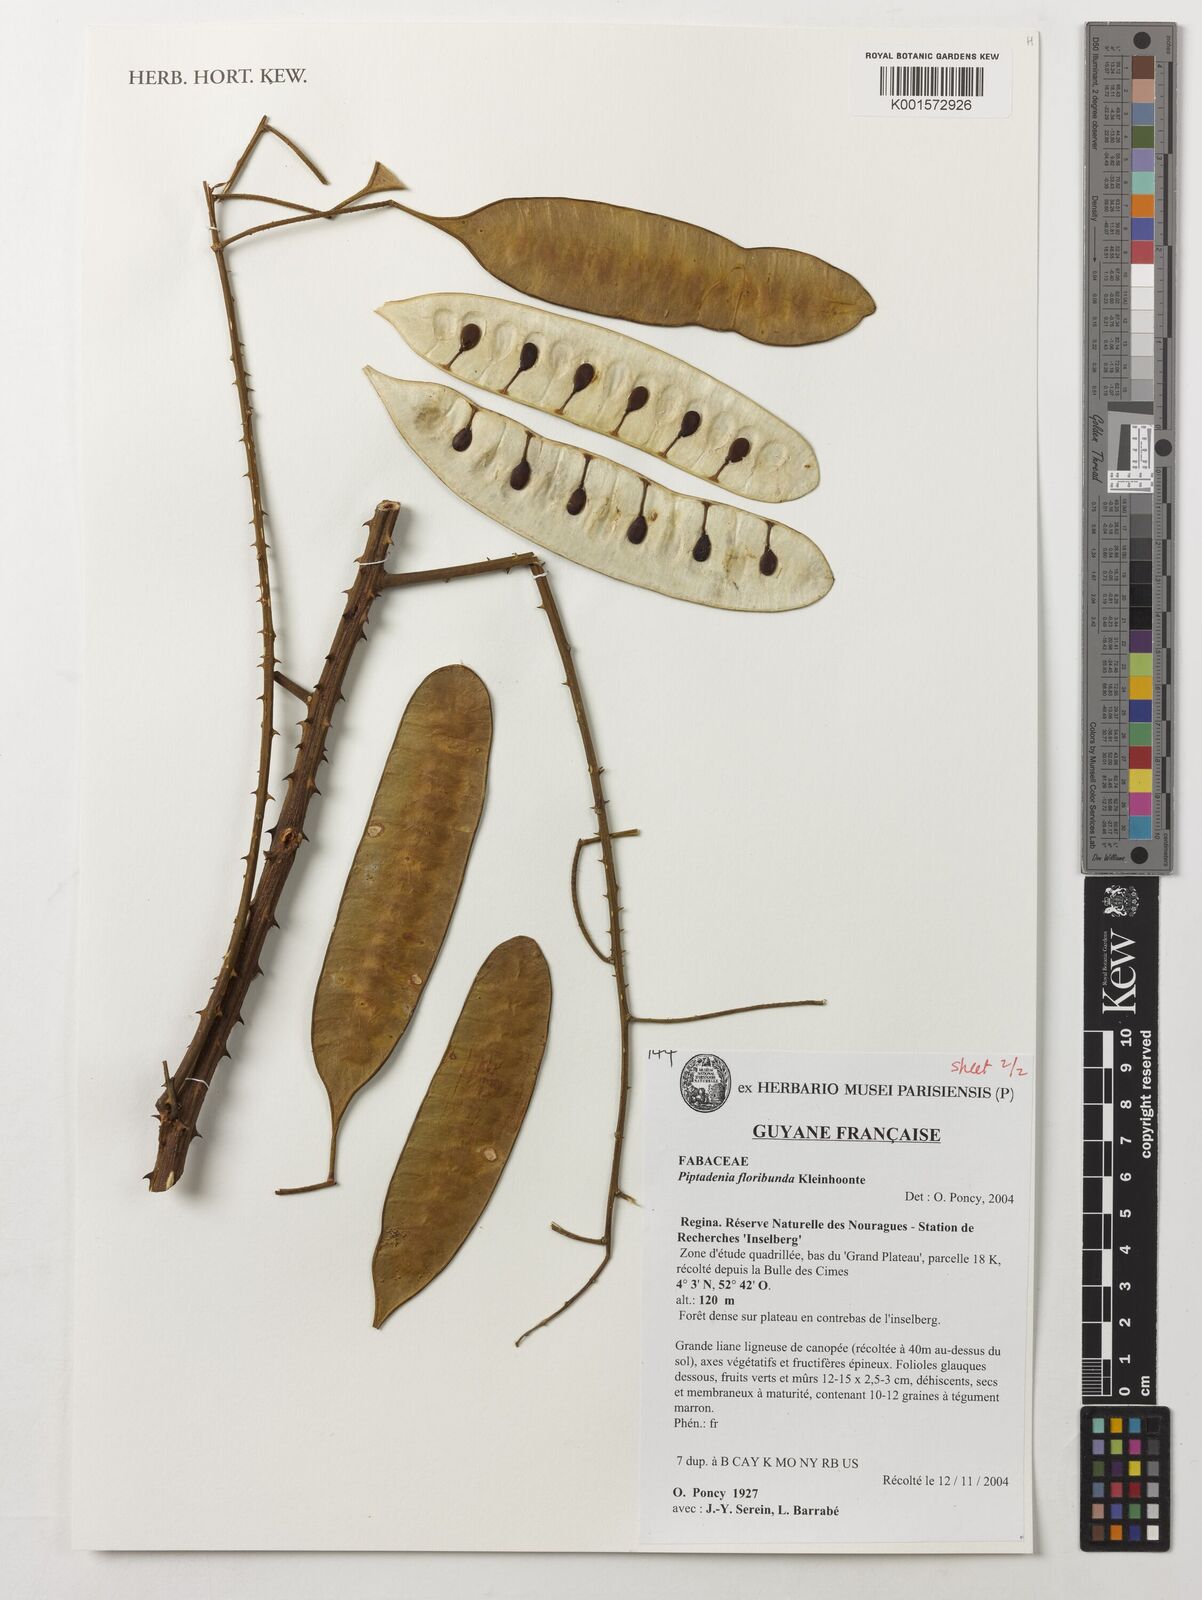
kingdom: Plantae
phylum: Tracheophyta
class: Magnoliopsida
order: Fabales
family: Fabaceae
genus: Piptadenia
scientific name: Piptadenia floribunda
